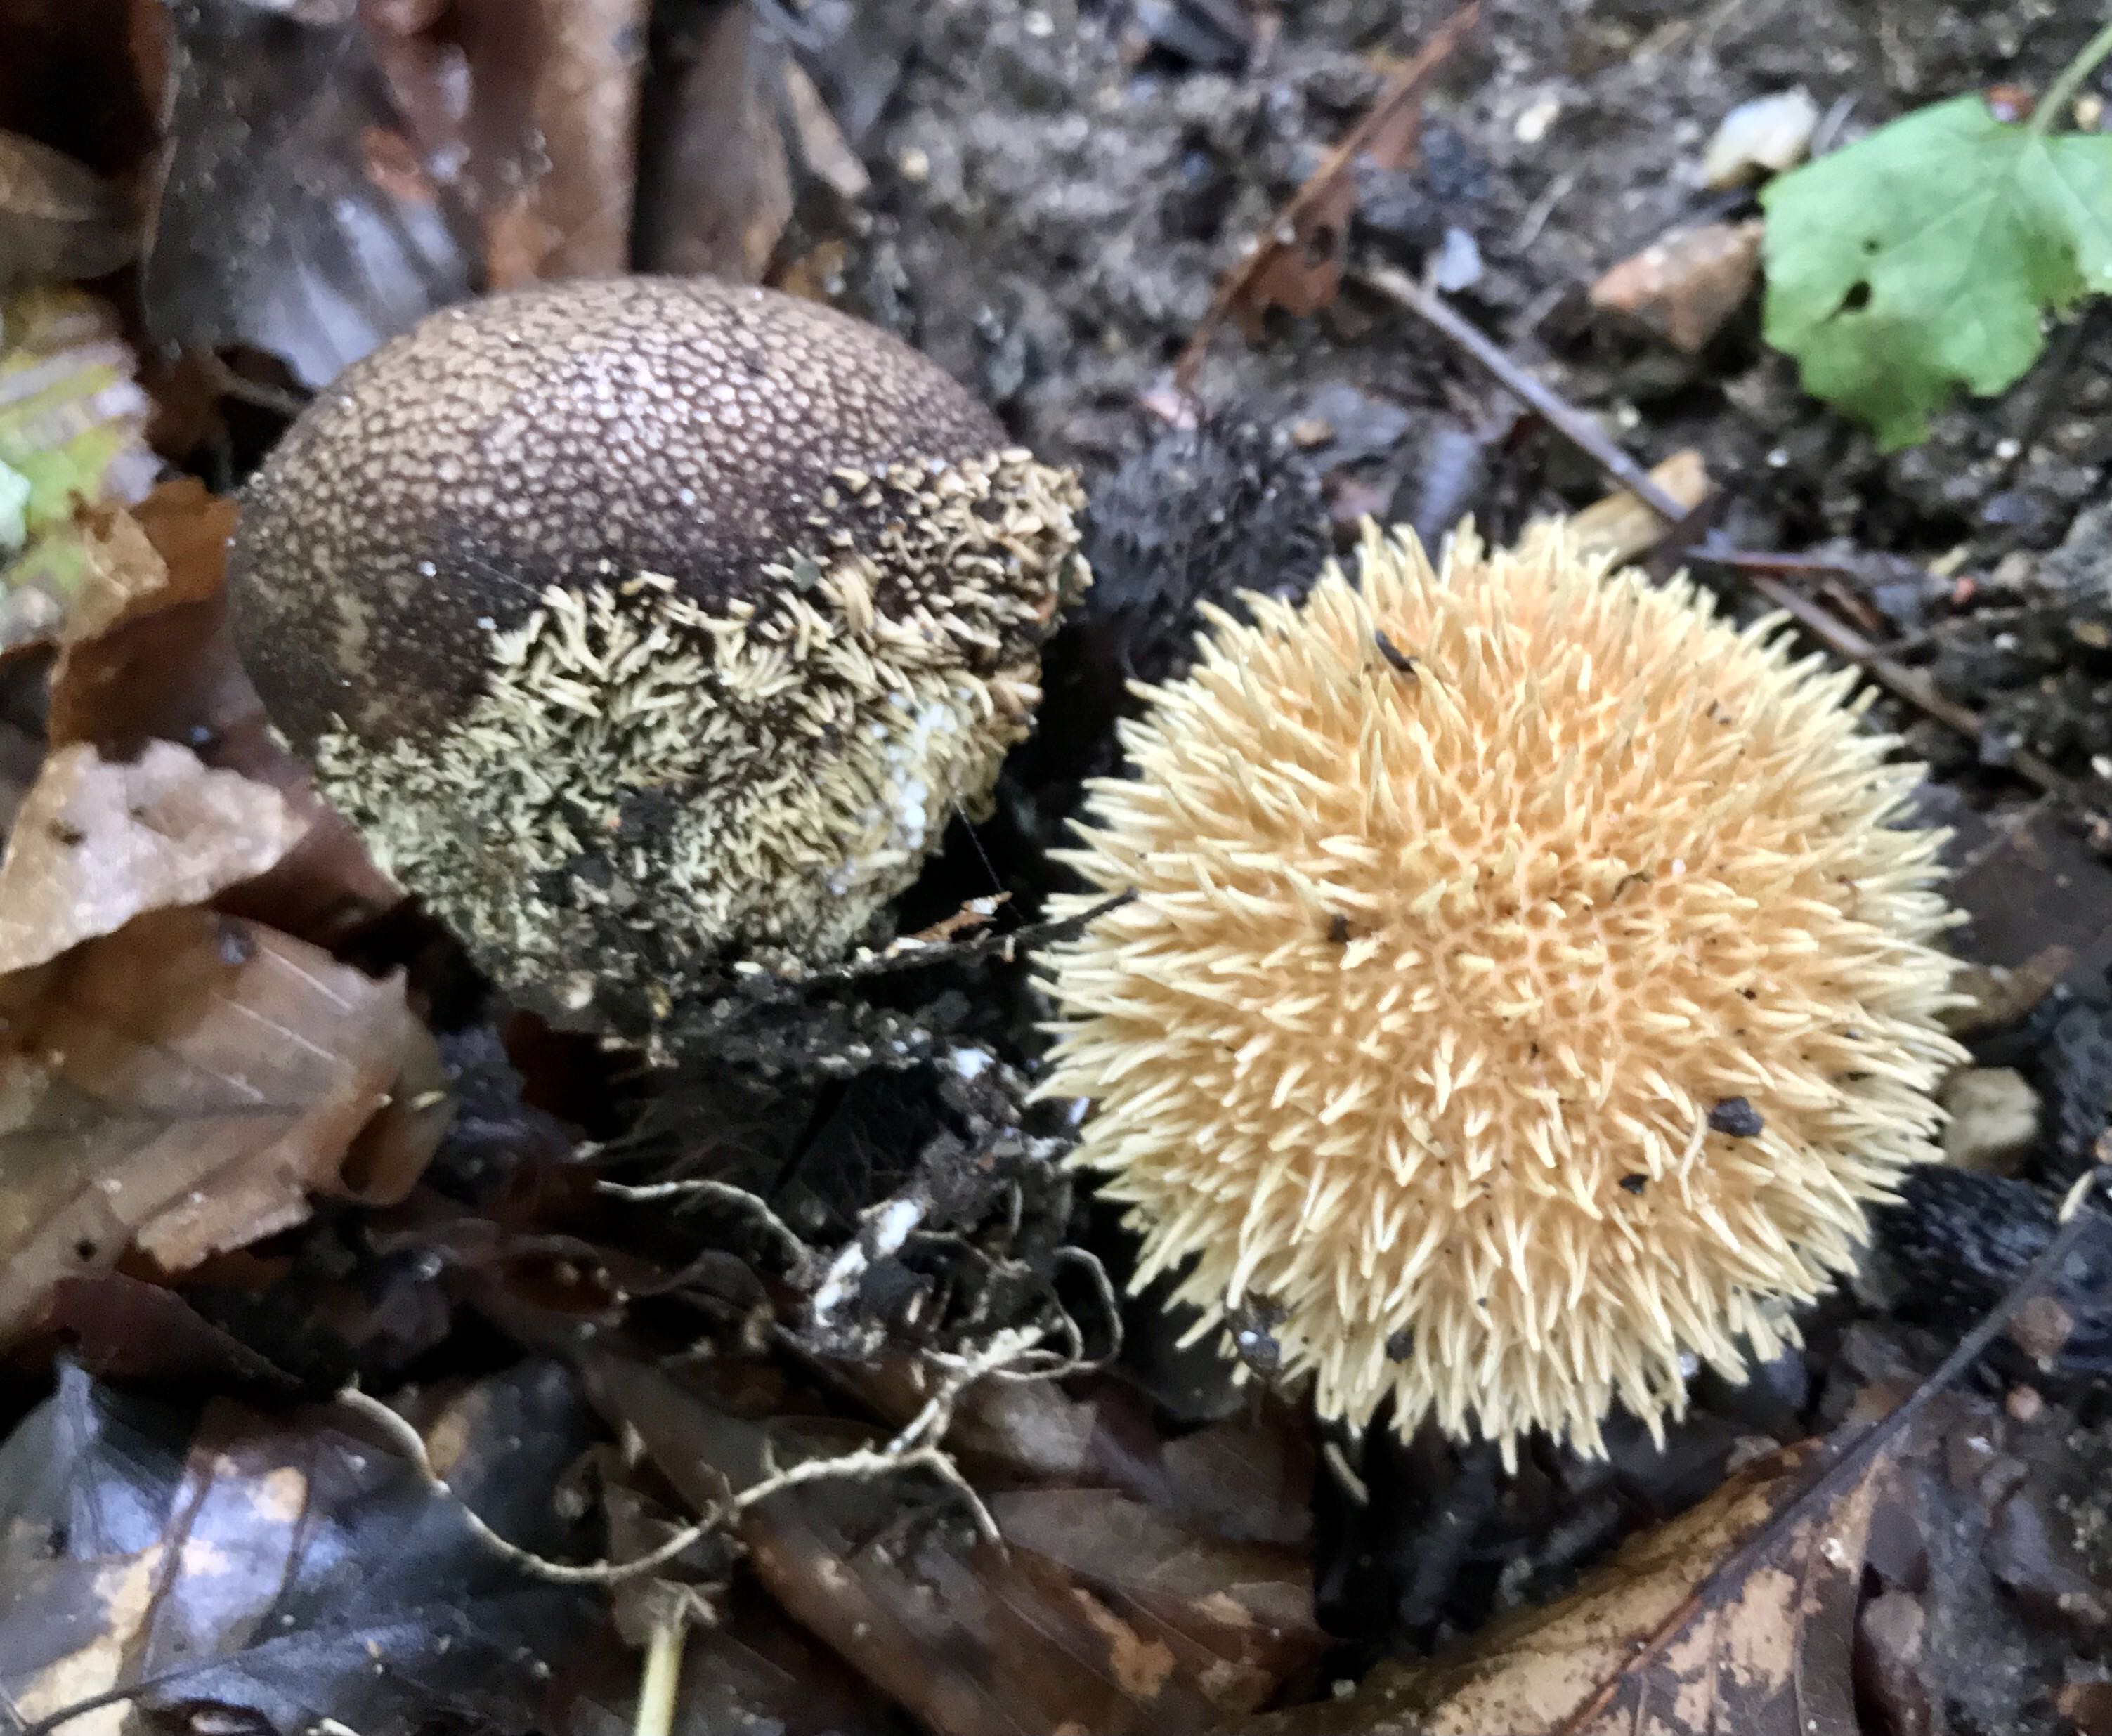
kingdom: Fungi
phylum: Basidiomycota
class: Agaricomycetes
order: Agaricales
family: Lycoperdaceae
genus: Lycoperdon
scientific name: Lycoperdon echinatum
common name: pindsvine-støvbold
